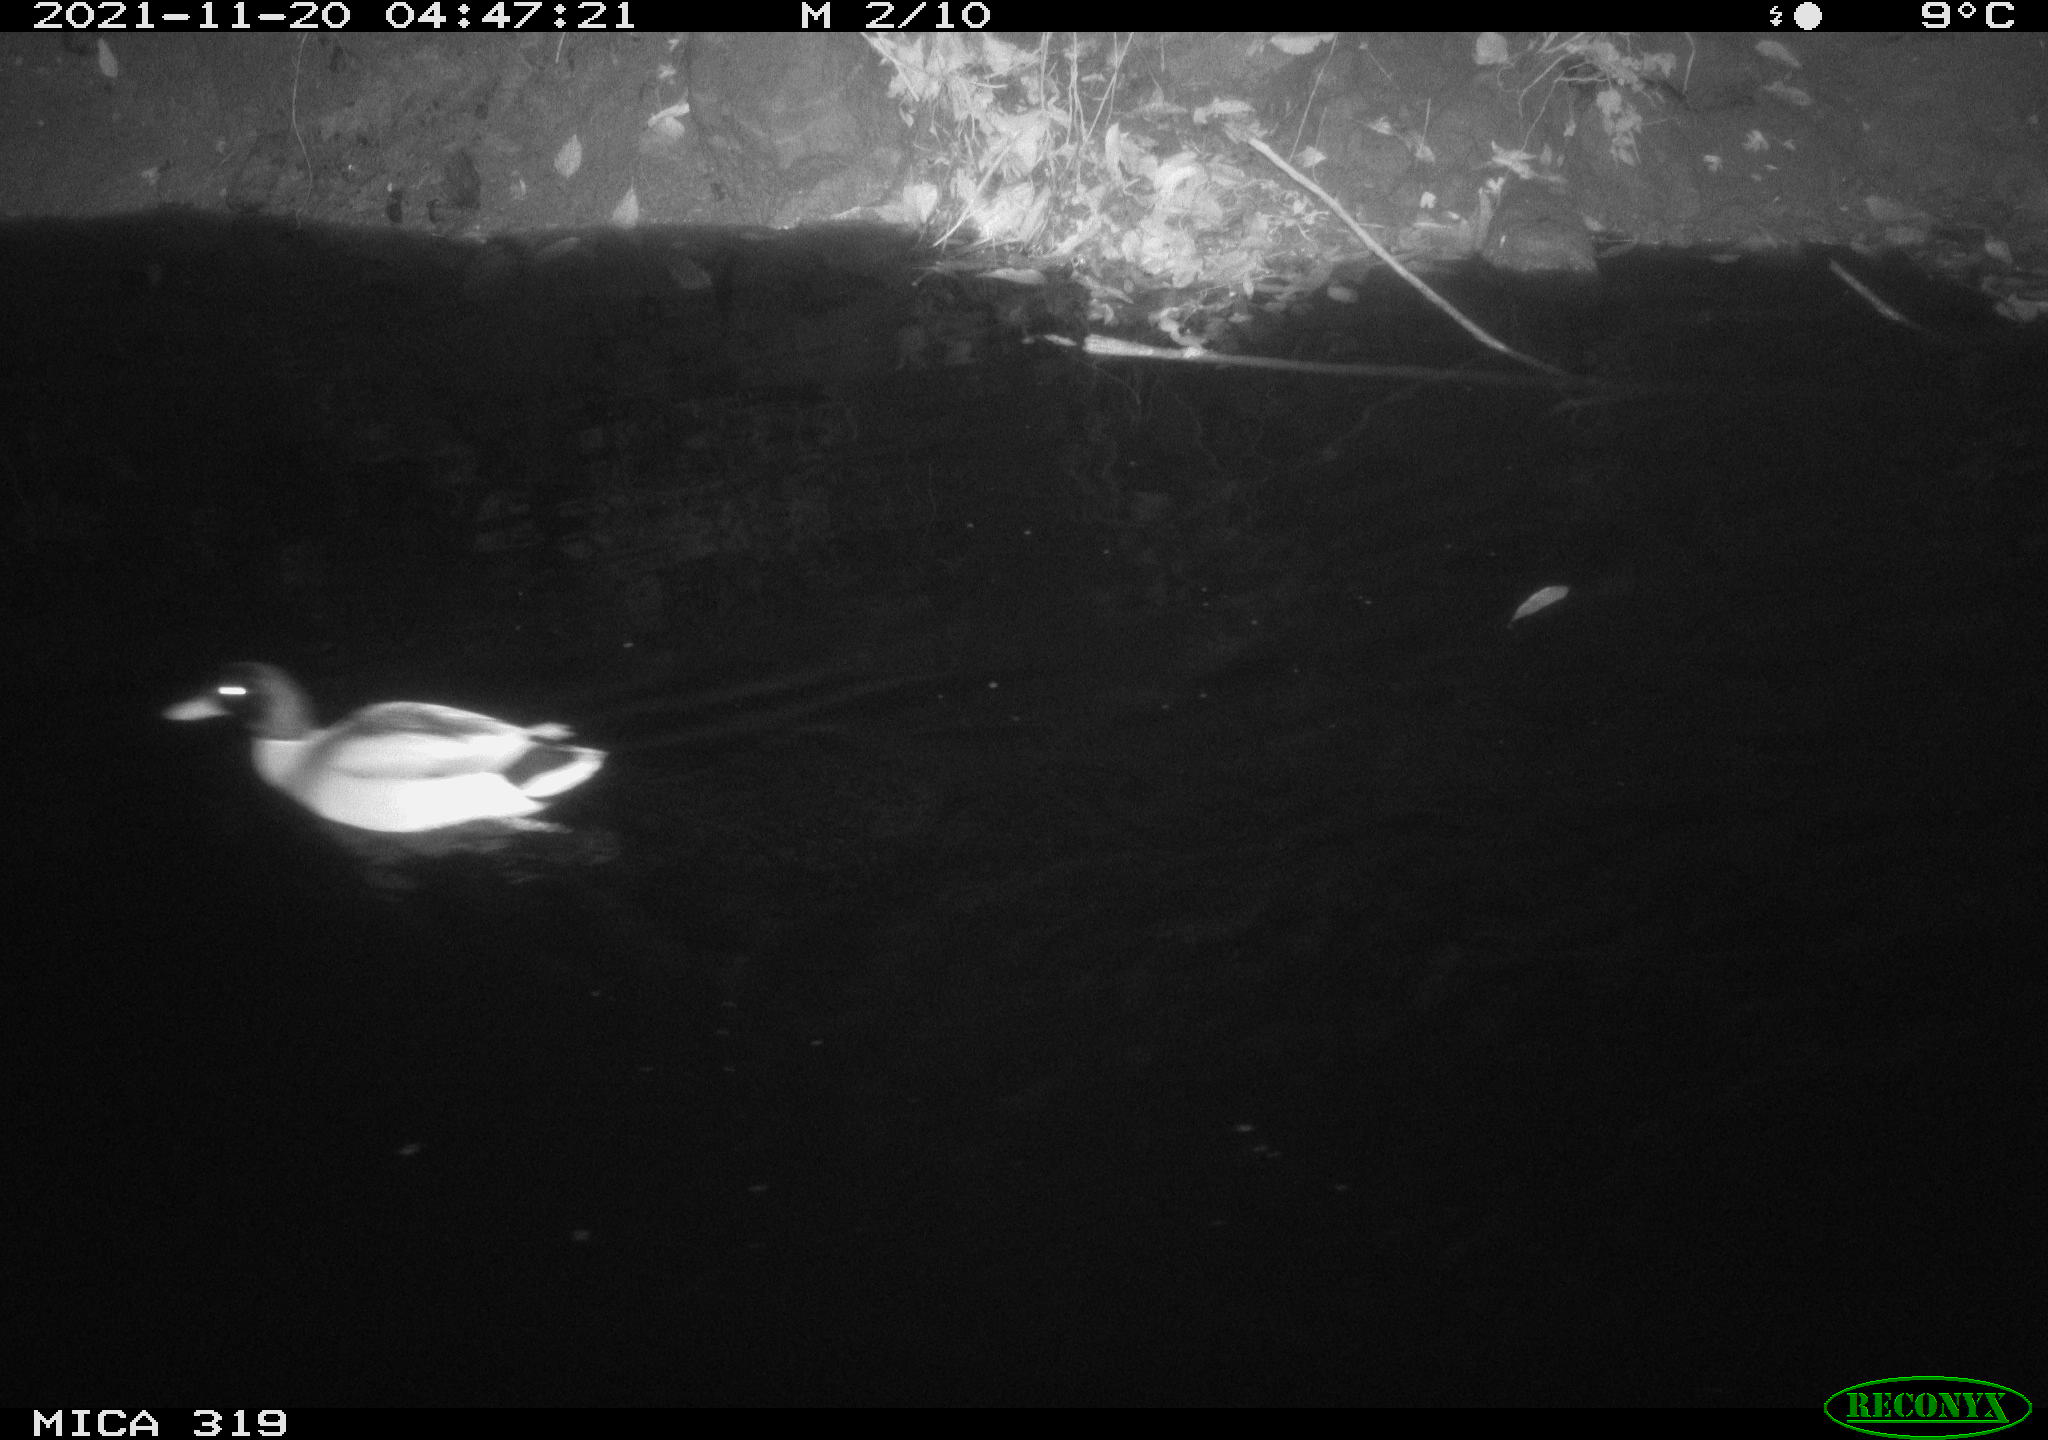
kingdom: Animalia
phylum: Chordata
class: Aves
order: Anseriformes
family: Anatidae
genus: Anas
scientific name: Anas platyrhynchos
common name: Mallard
